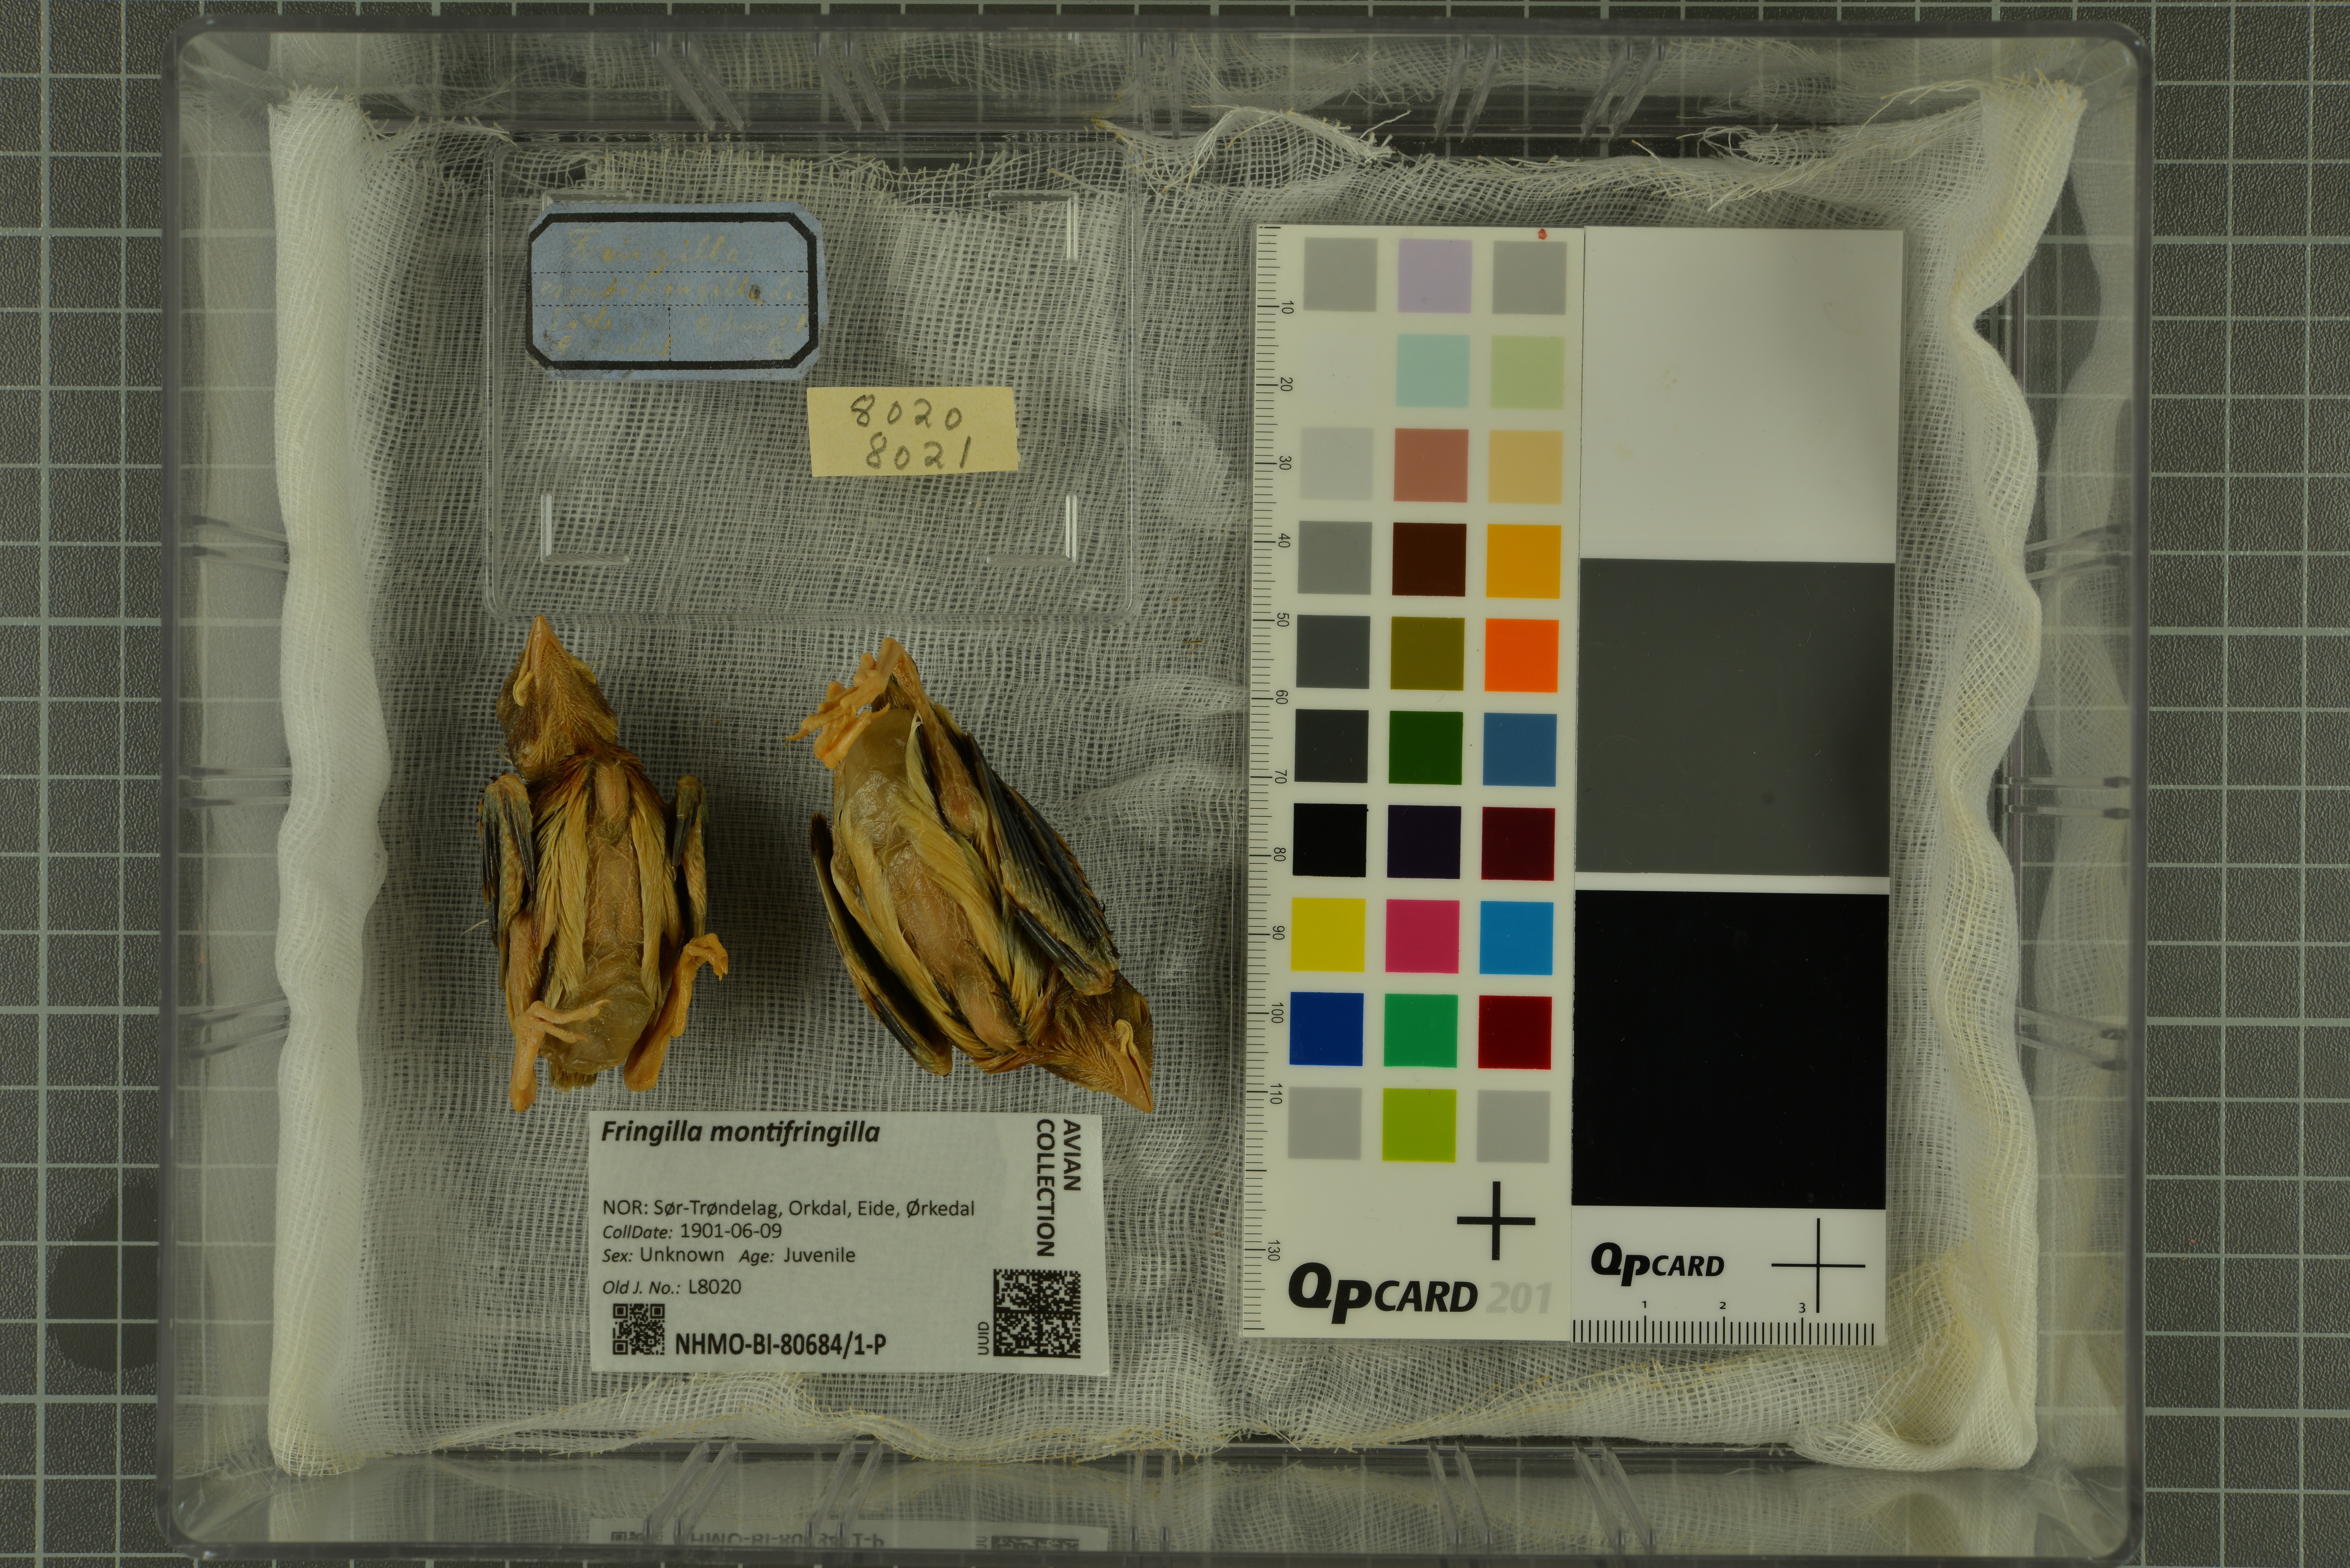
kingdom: Animalia
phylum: Chordata
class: Aves
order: Passeriformes
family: Fringillidae
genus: Fringilla
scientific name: Fringilla montifringilla
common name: Brambling
